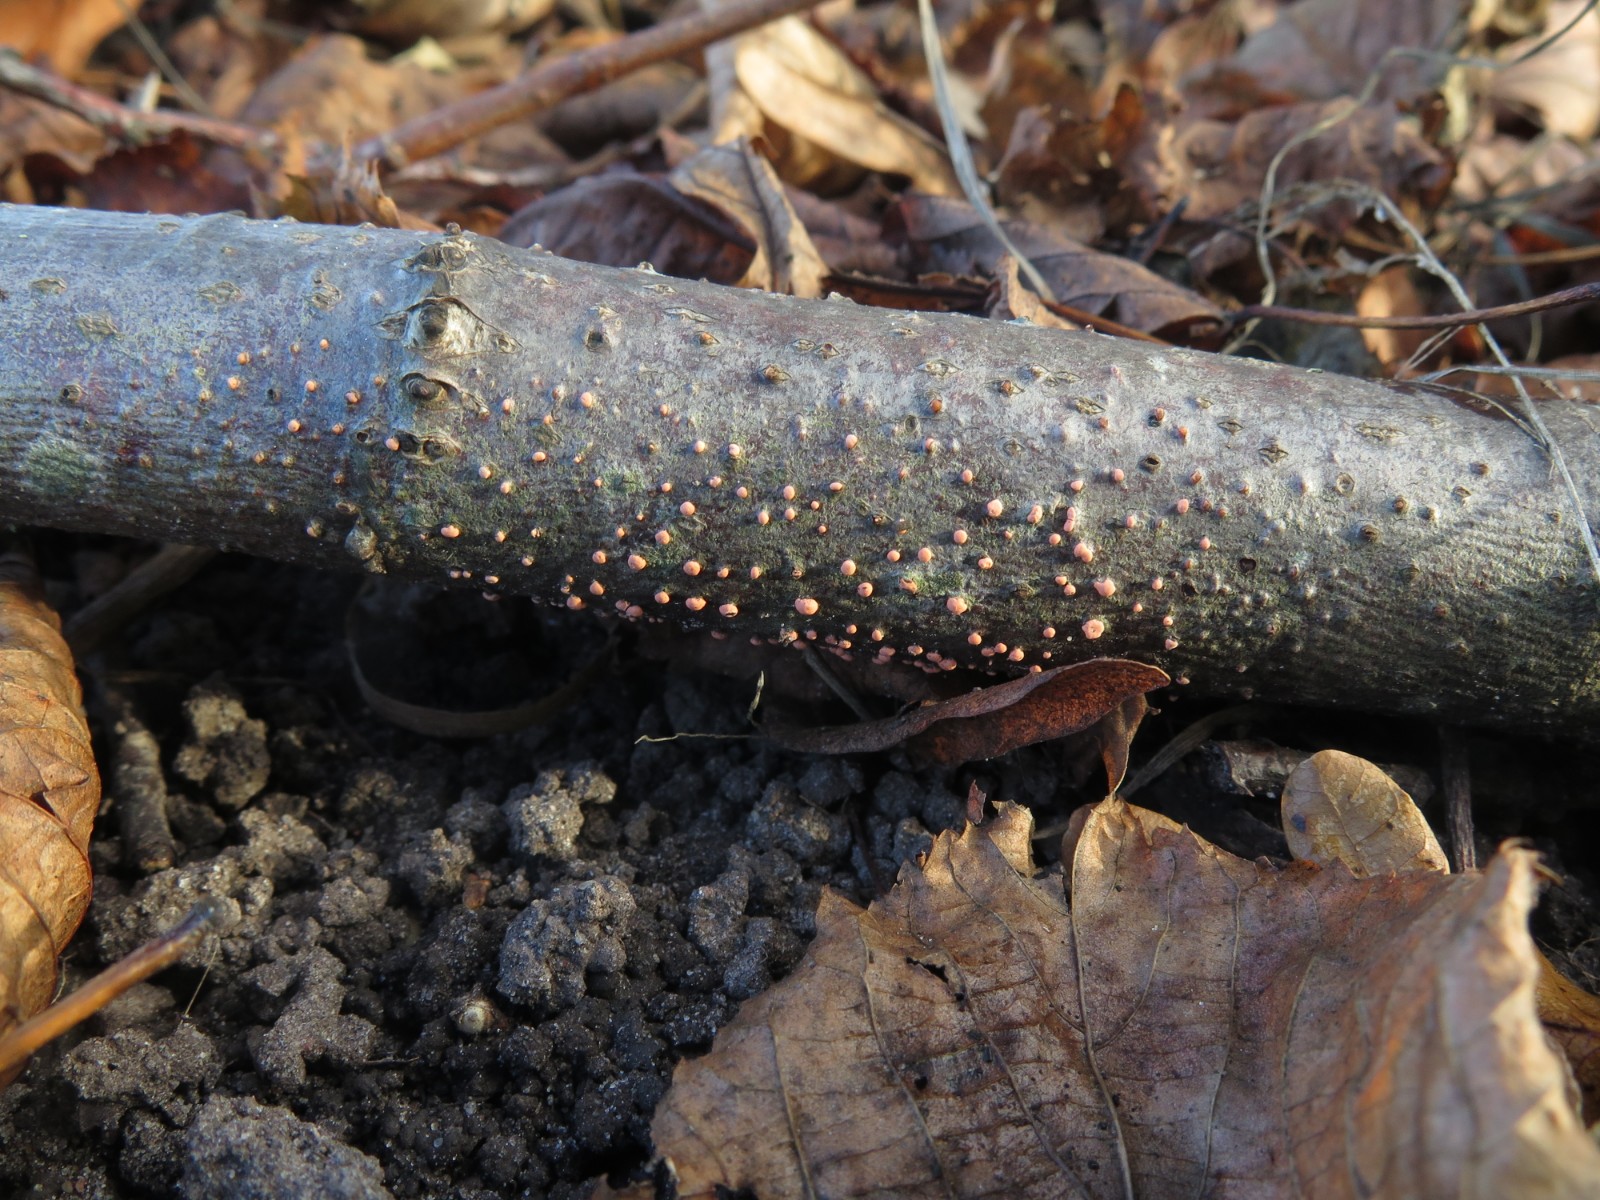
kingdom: Fungi
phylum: Ascomycota
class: Sordariomycetes
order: Hypocreales
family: Nectriaceae
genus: Nectria
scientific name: Nectria cinnabarina
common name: almindelig cinnobersvamp
